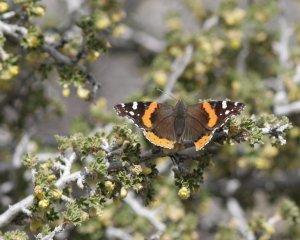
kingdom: Animalia
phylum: Arthropoda
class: Insecta
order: Lepidoptera
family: Nymphalidae
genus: Vanessa
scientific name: Vanessa atalanta
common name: Red Admiral
